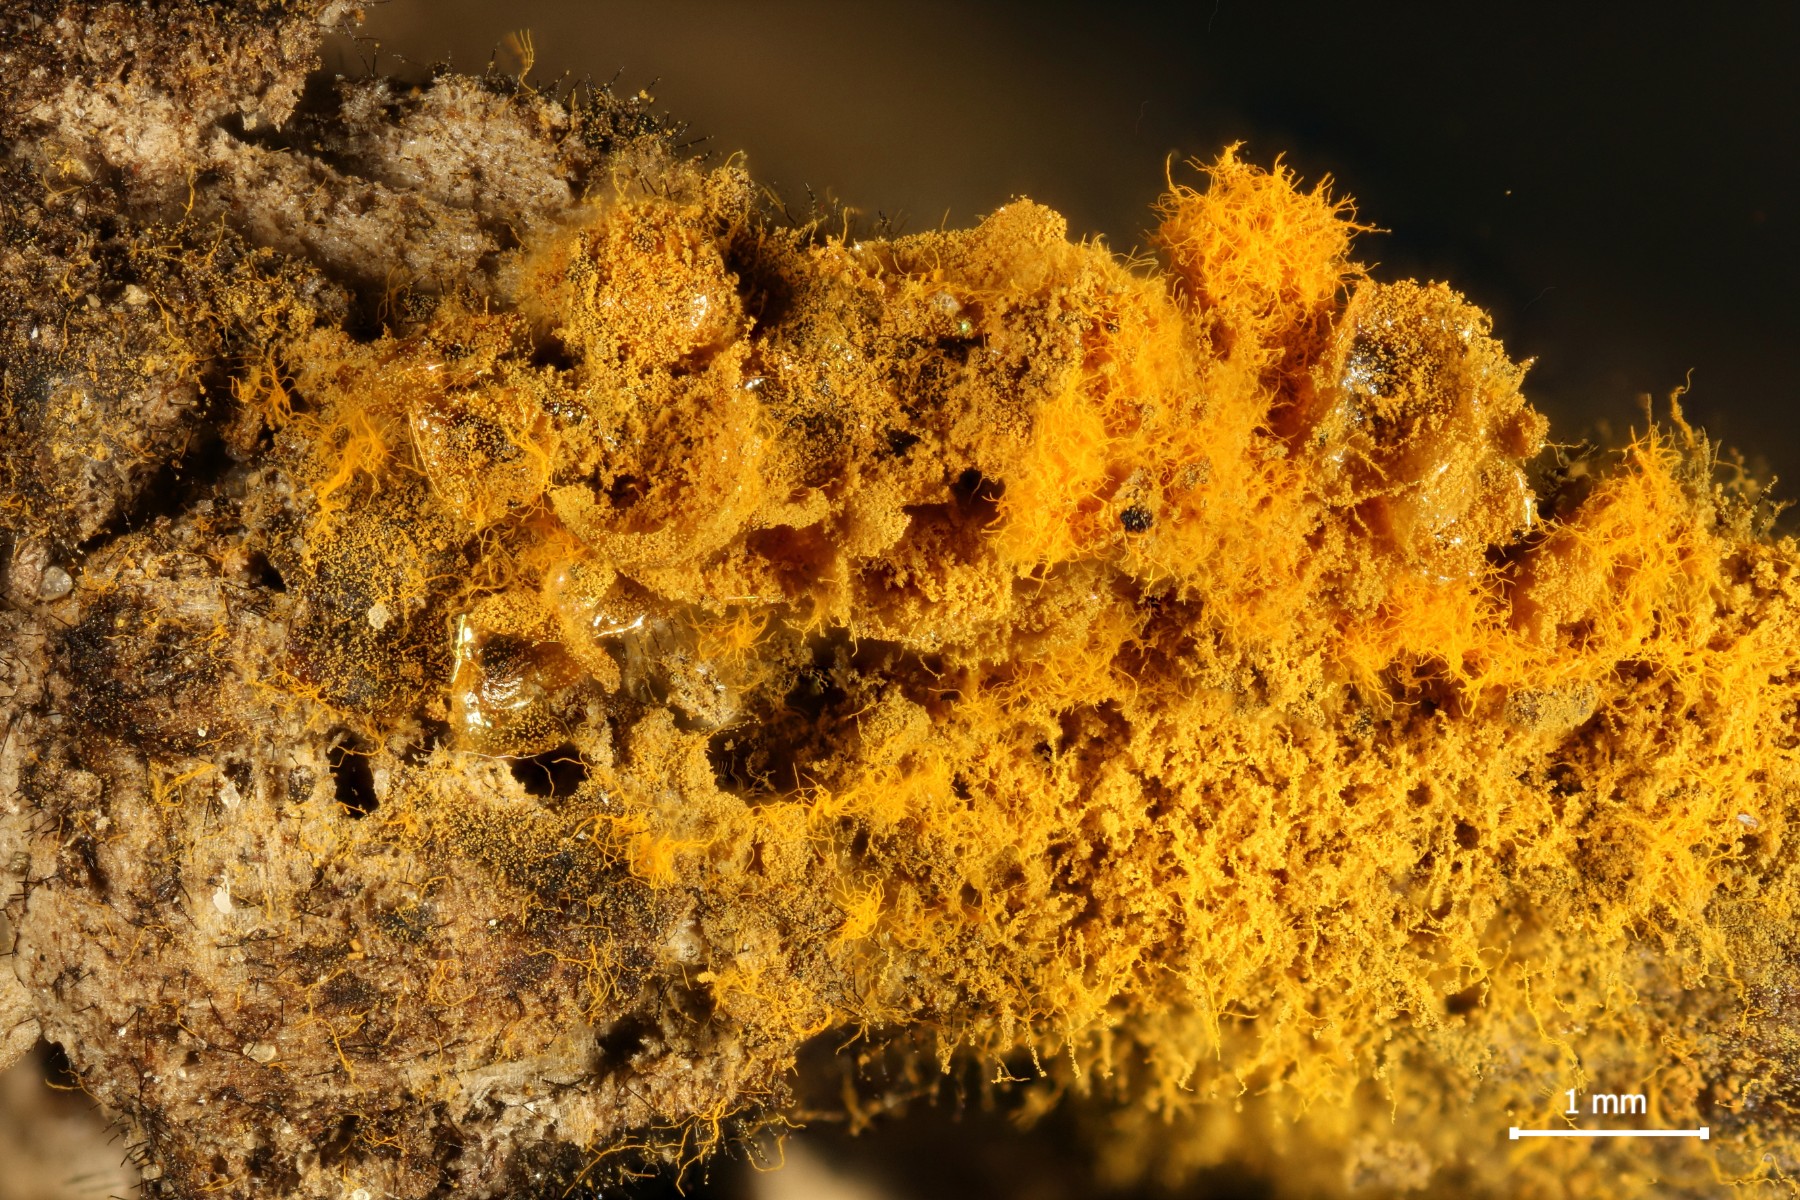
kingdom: Protozoa
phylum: Mycetozoa
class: Myxomycetes
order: Trichiales
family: Trichiaceae
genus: Trichia
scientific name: Trichia scabra
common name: tæppe-hårbold
